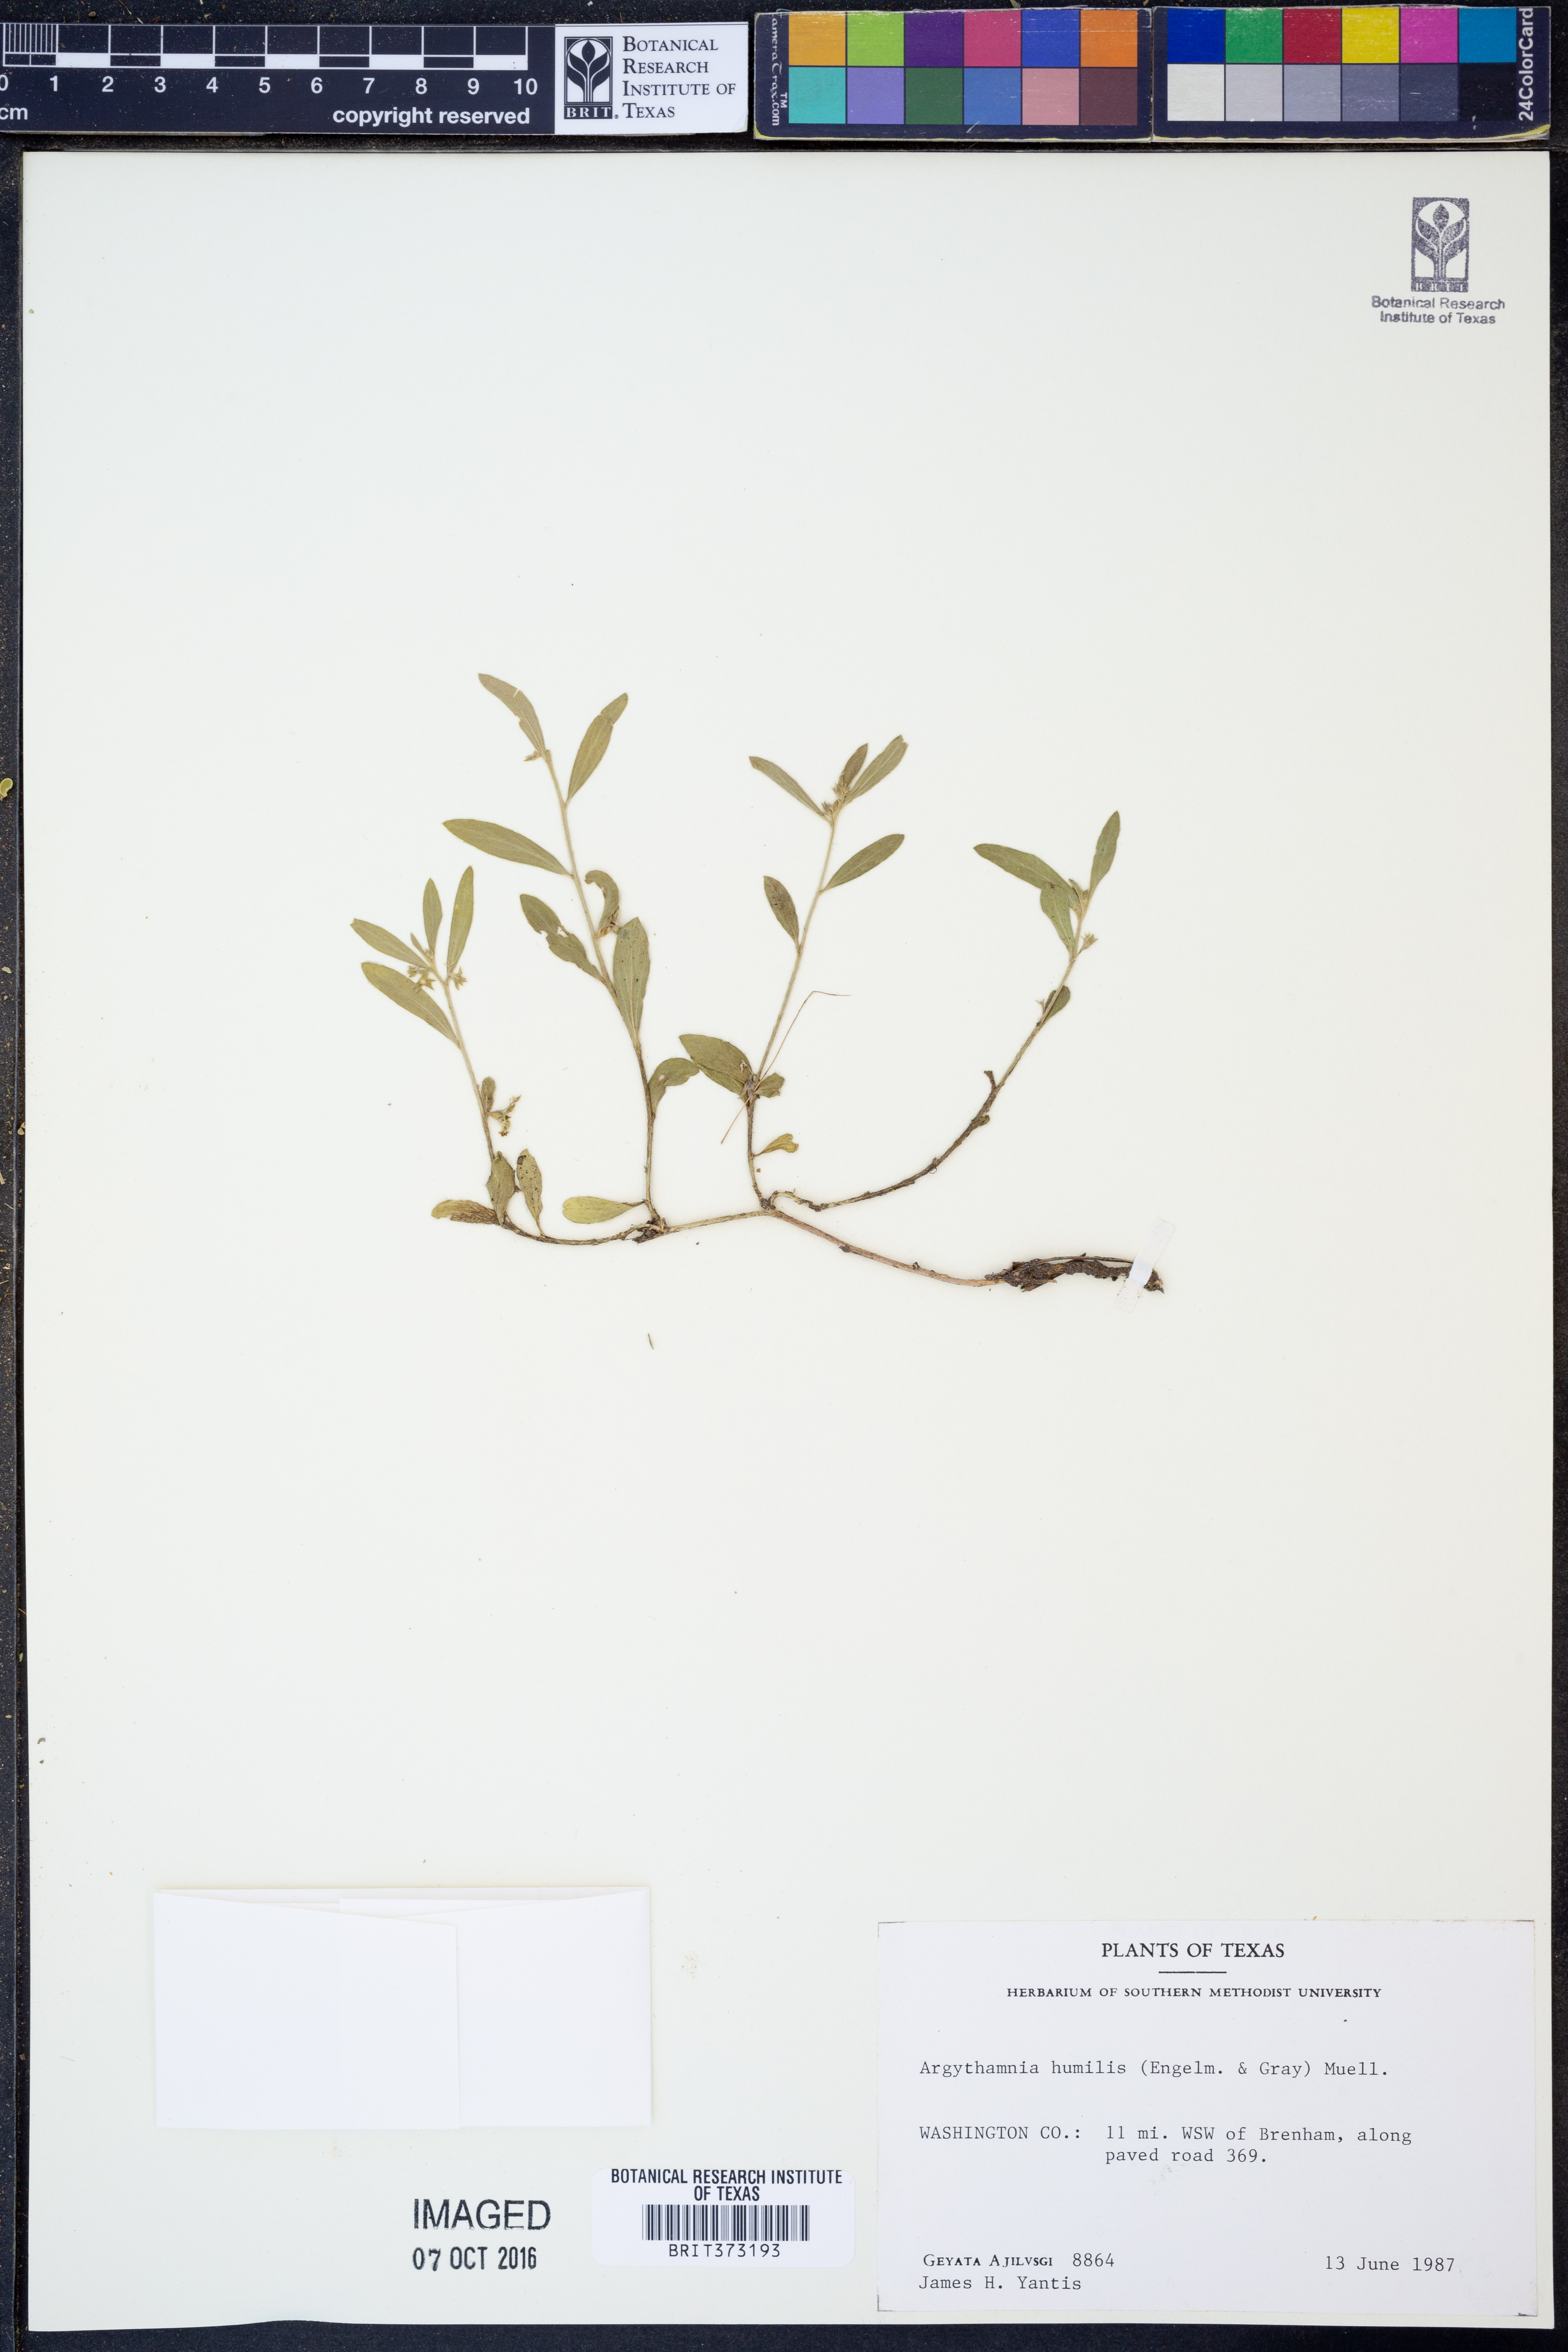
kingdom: Plantae
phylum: Tracheophyta
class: Magnoliopsida
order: Malpighiales
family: Euphorbiaceae
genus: Ditaxis
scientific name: Ditaxis humilis
